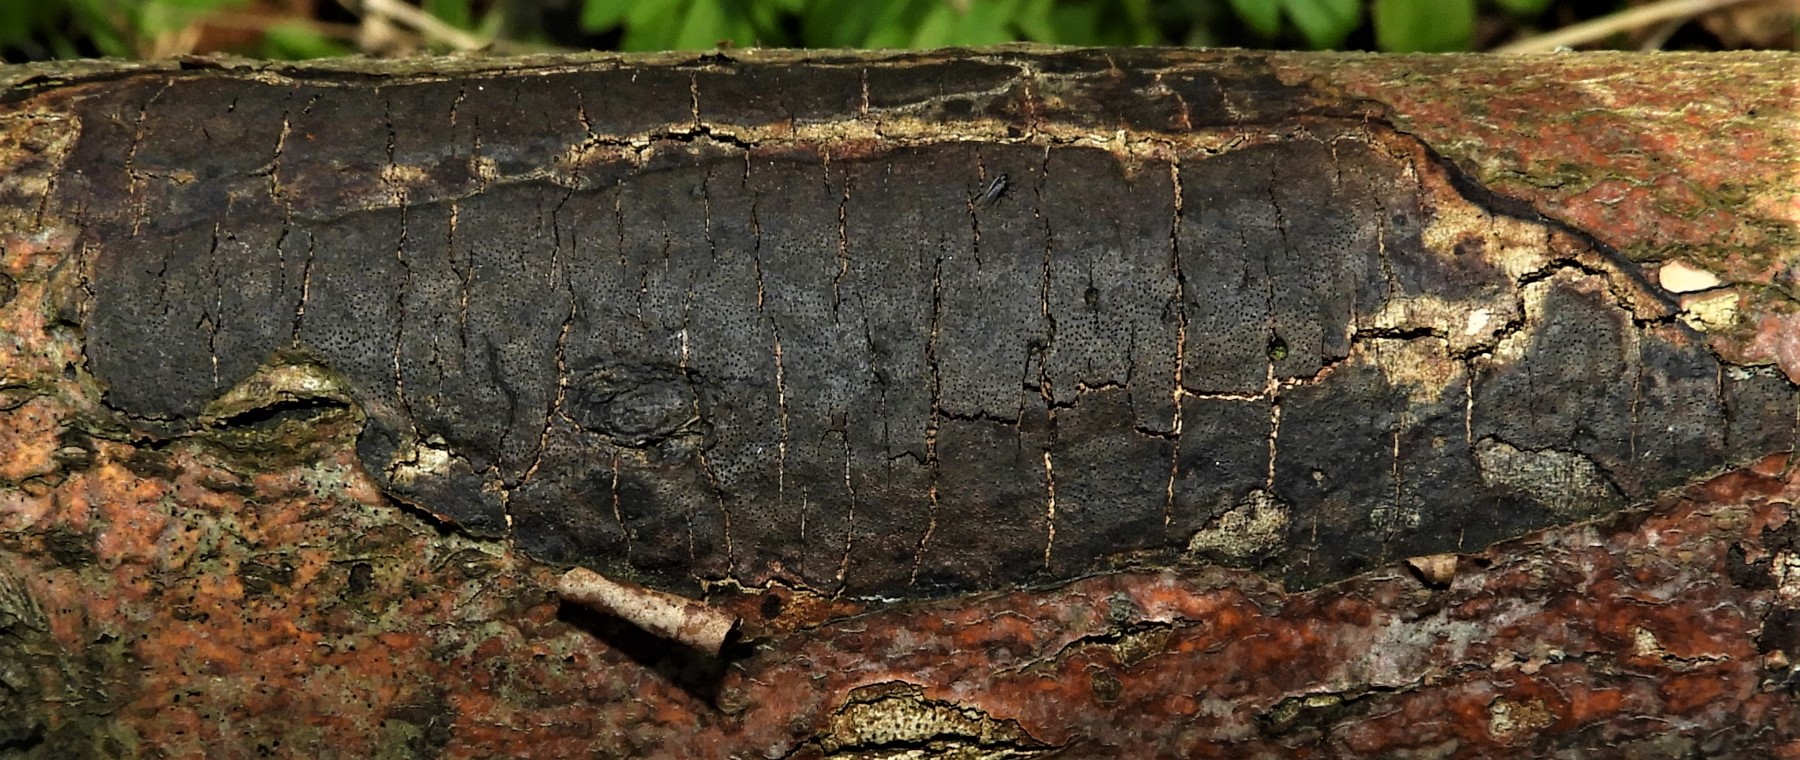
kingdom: Fungi
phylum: Ascomycota
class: Sordariomycetes
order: Xylariales
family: Diatrypaceae
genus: Diatrype
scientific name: Diatrype decorticata
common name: barksprænger-kulskorpe
